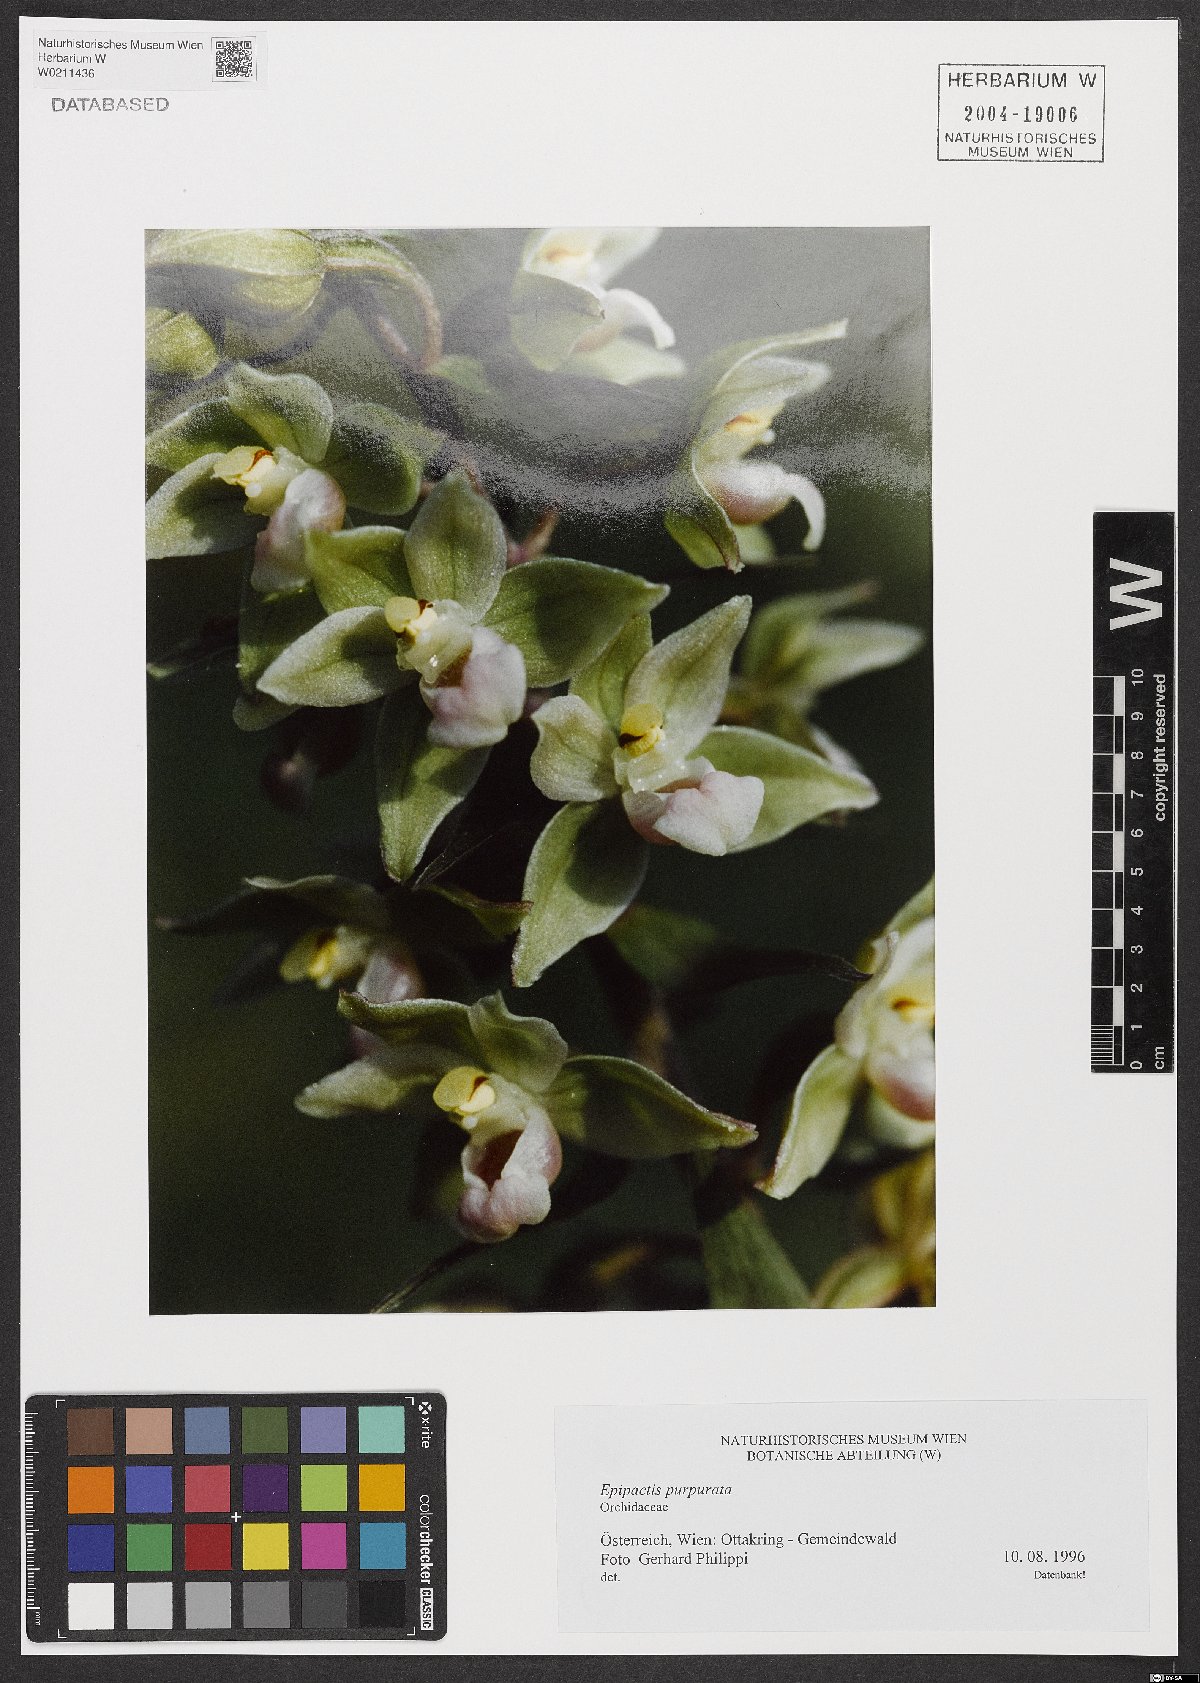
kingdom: Plantae
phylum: Tracheophyta
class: Liliopsida
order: Asparagales
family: Orchidaceae
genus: Epipactis
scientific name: Epipactis purpurata
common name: Violet helleborine
